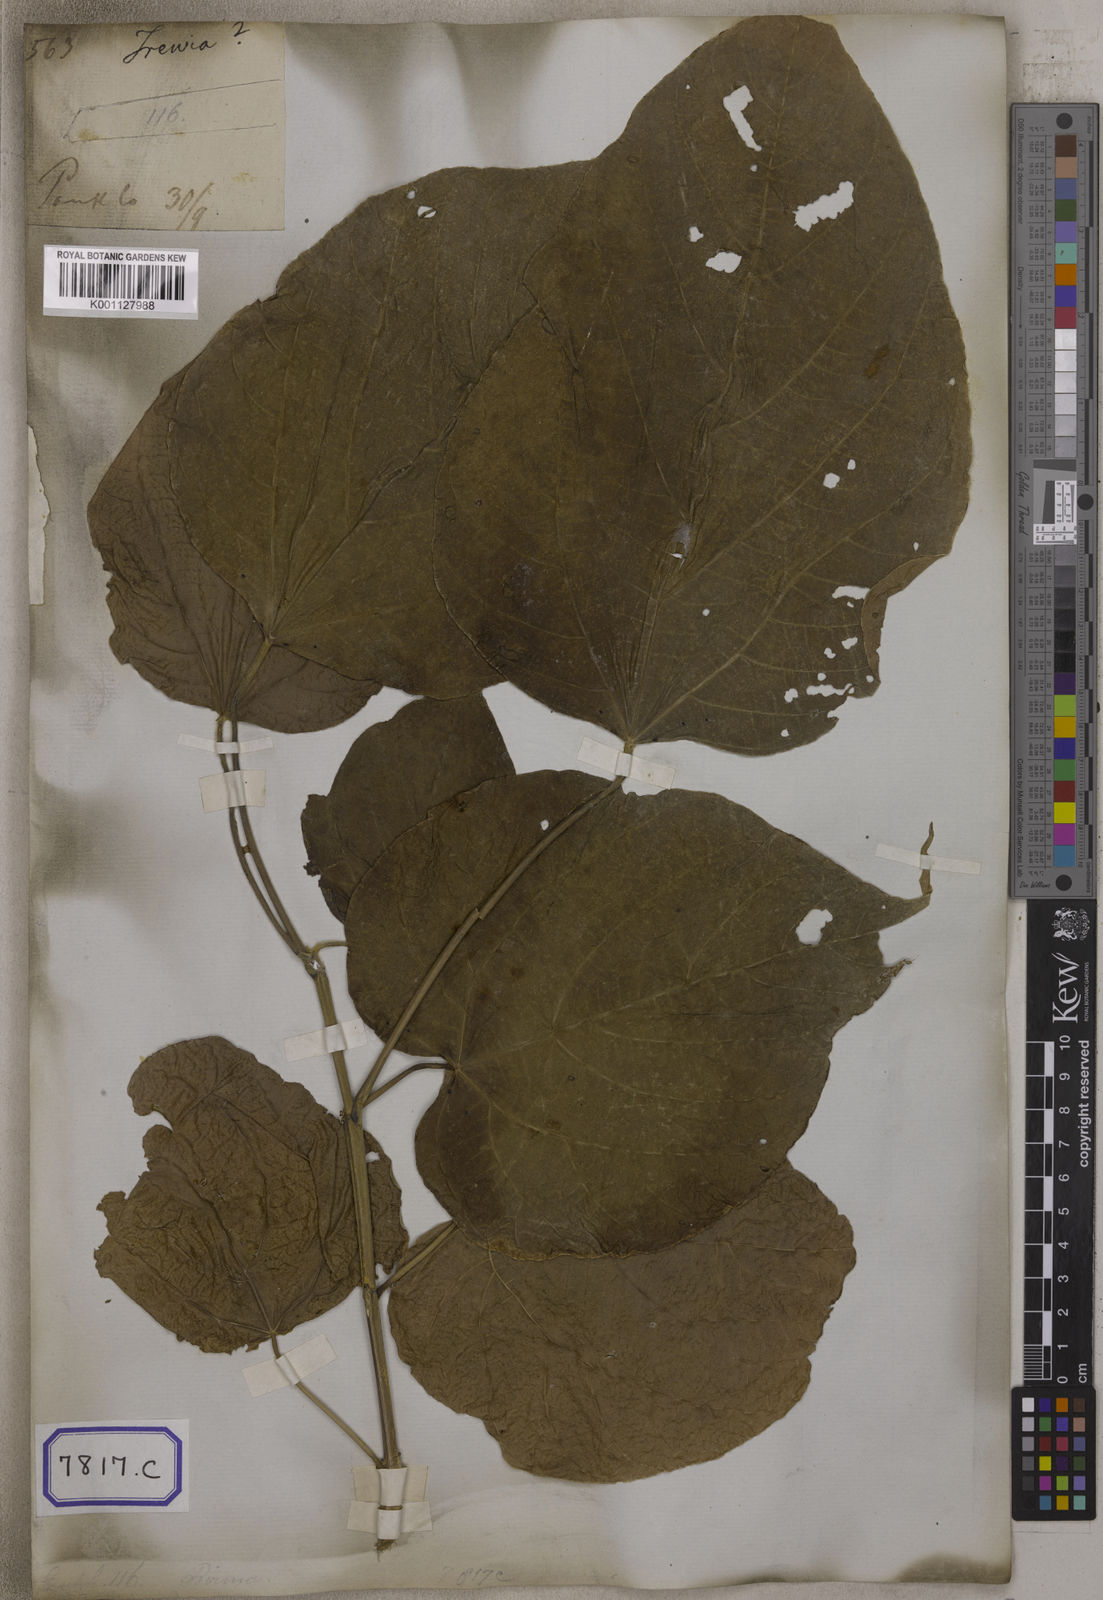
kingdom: Plantae
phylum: Tracheophyta
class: Magnoliopsida
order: Malpighiales
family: Euphorbiaceae
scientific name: Euphorbiaceae
